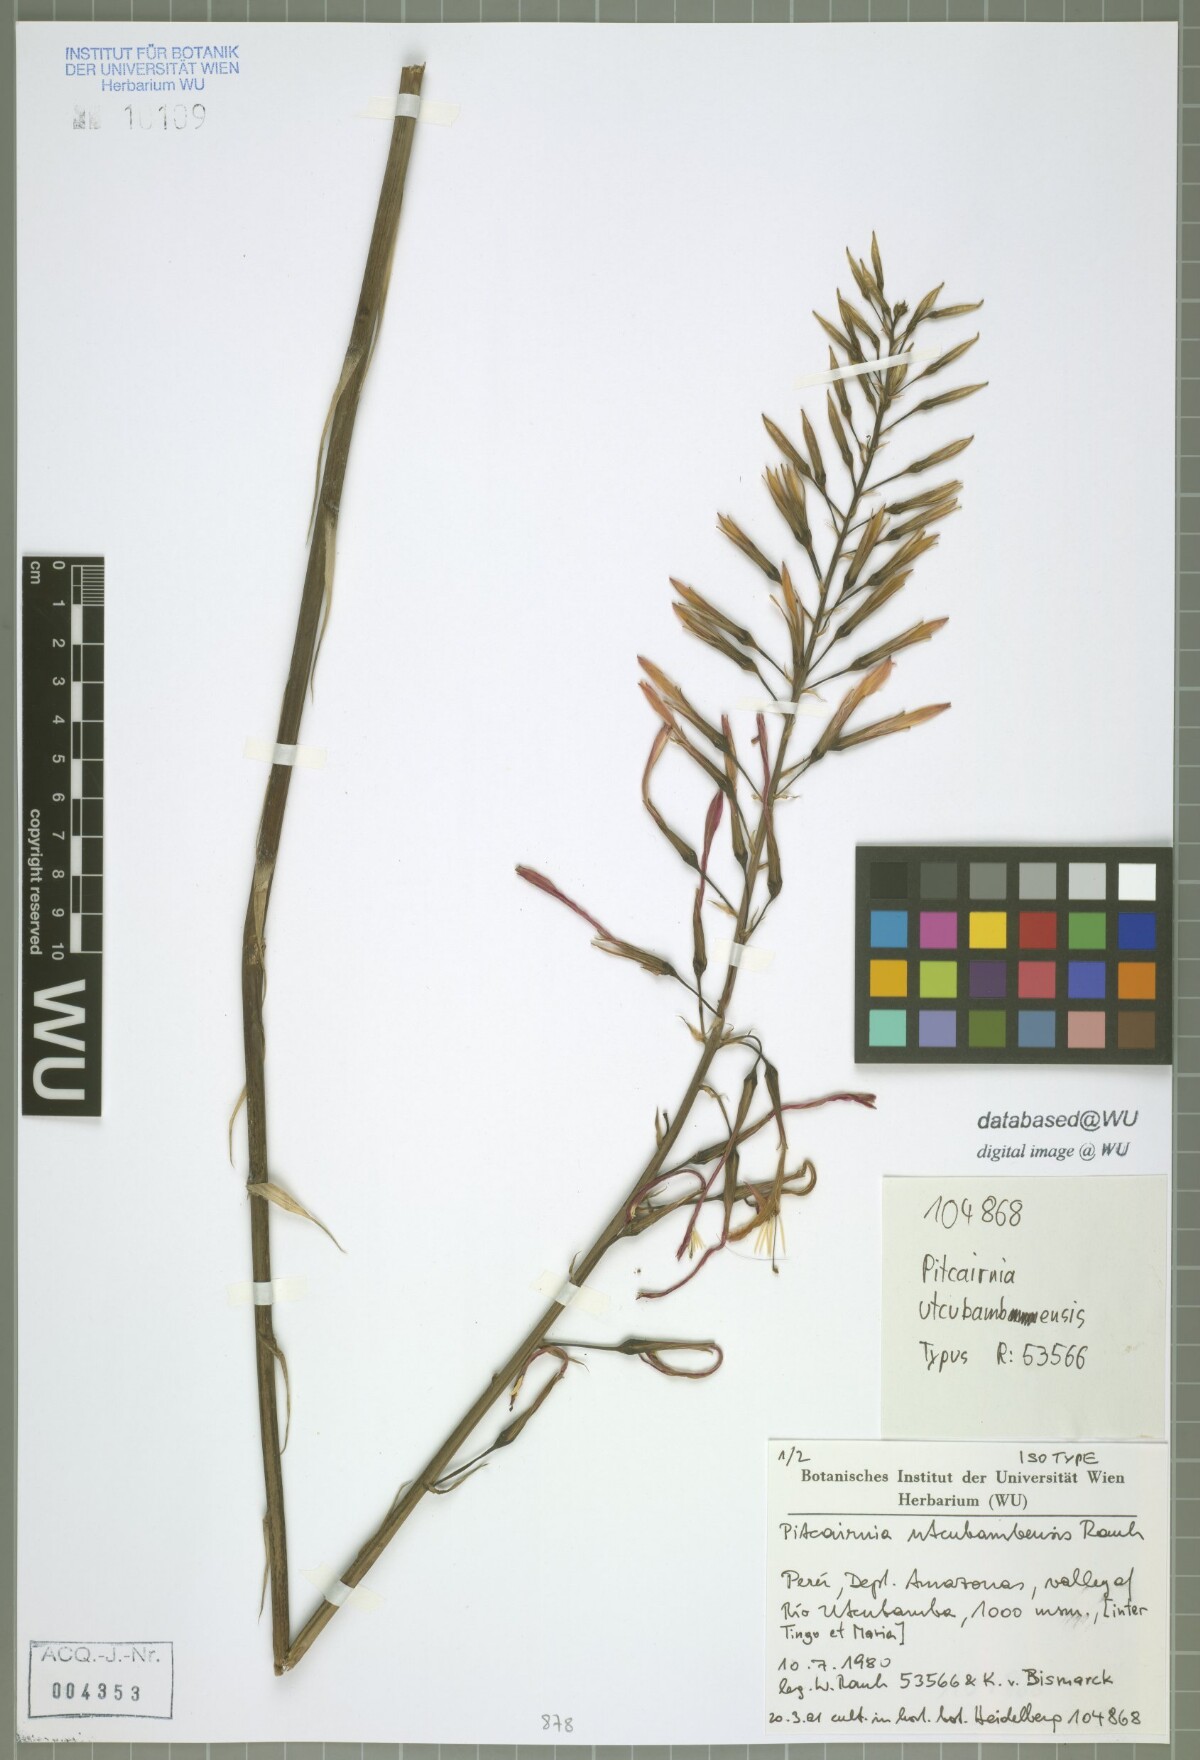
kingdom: Plantae
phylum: Tracheophyta
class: Liliopsida
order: Poales
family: Bromeliaceae
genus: Pitcairnia
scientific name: Pitcairnia utcubambensis
